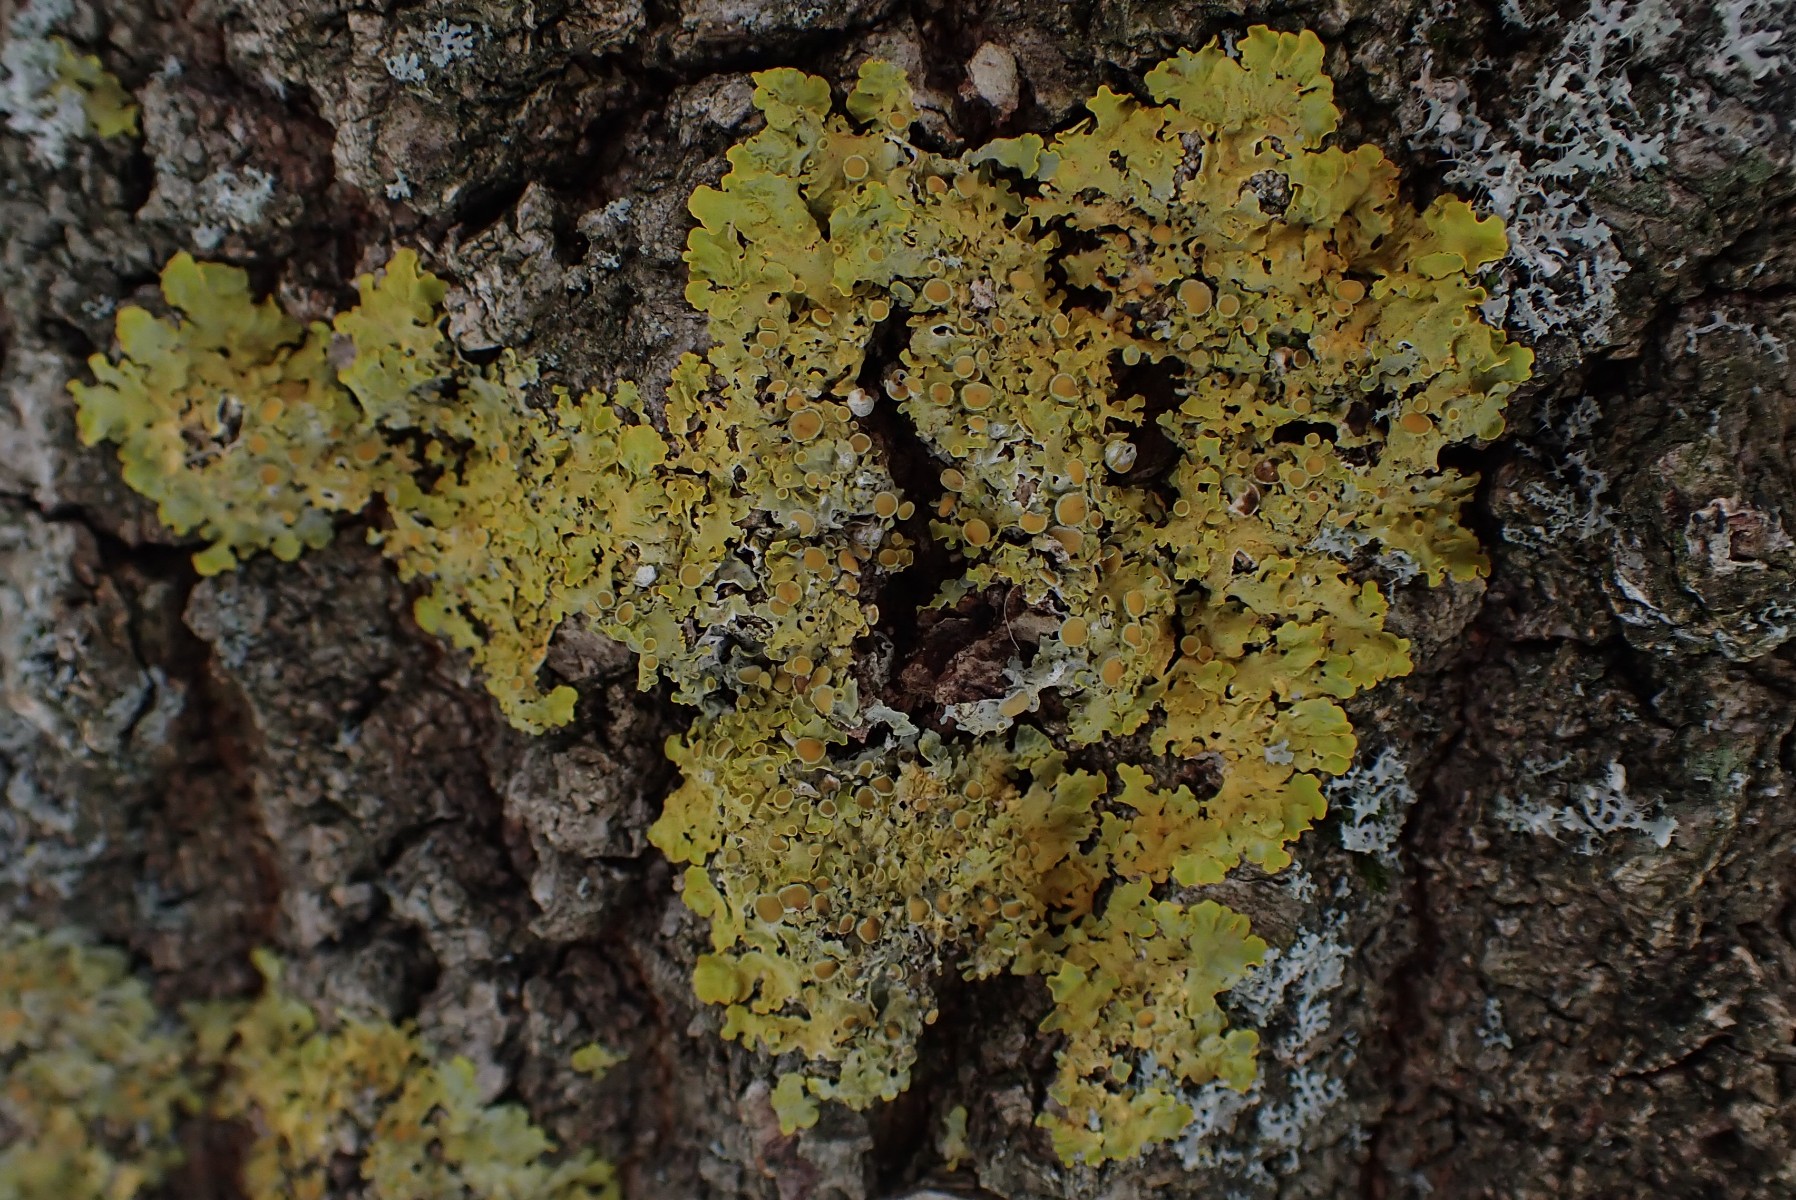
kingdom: Fungi
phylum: Ascomycota
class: Lecanoromycetes
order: Teloschistales
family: Teloschistaceae
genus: Xanthoria
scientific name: Xanthoria parietina
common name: almindelig væggelav
